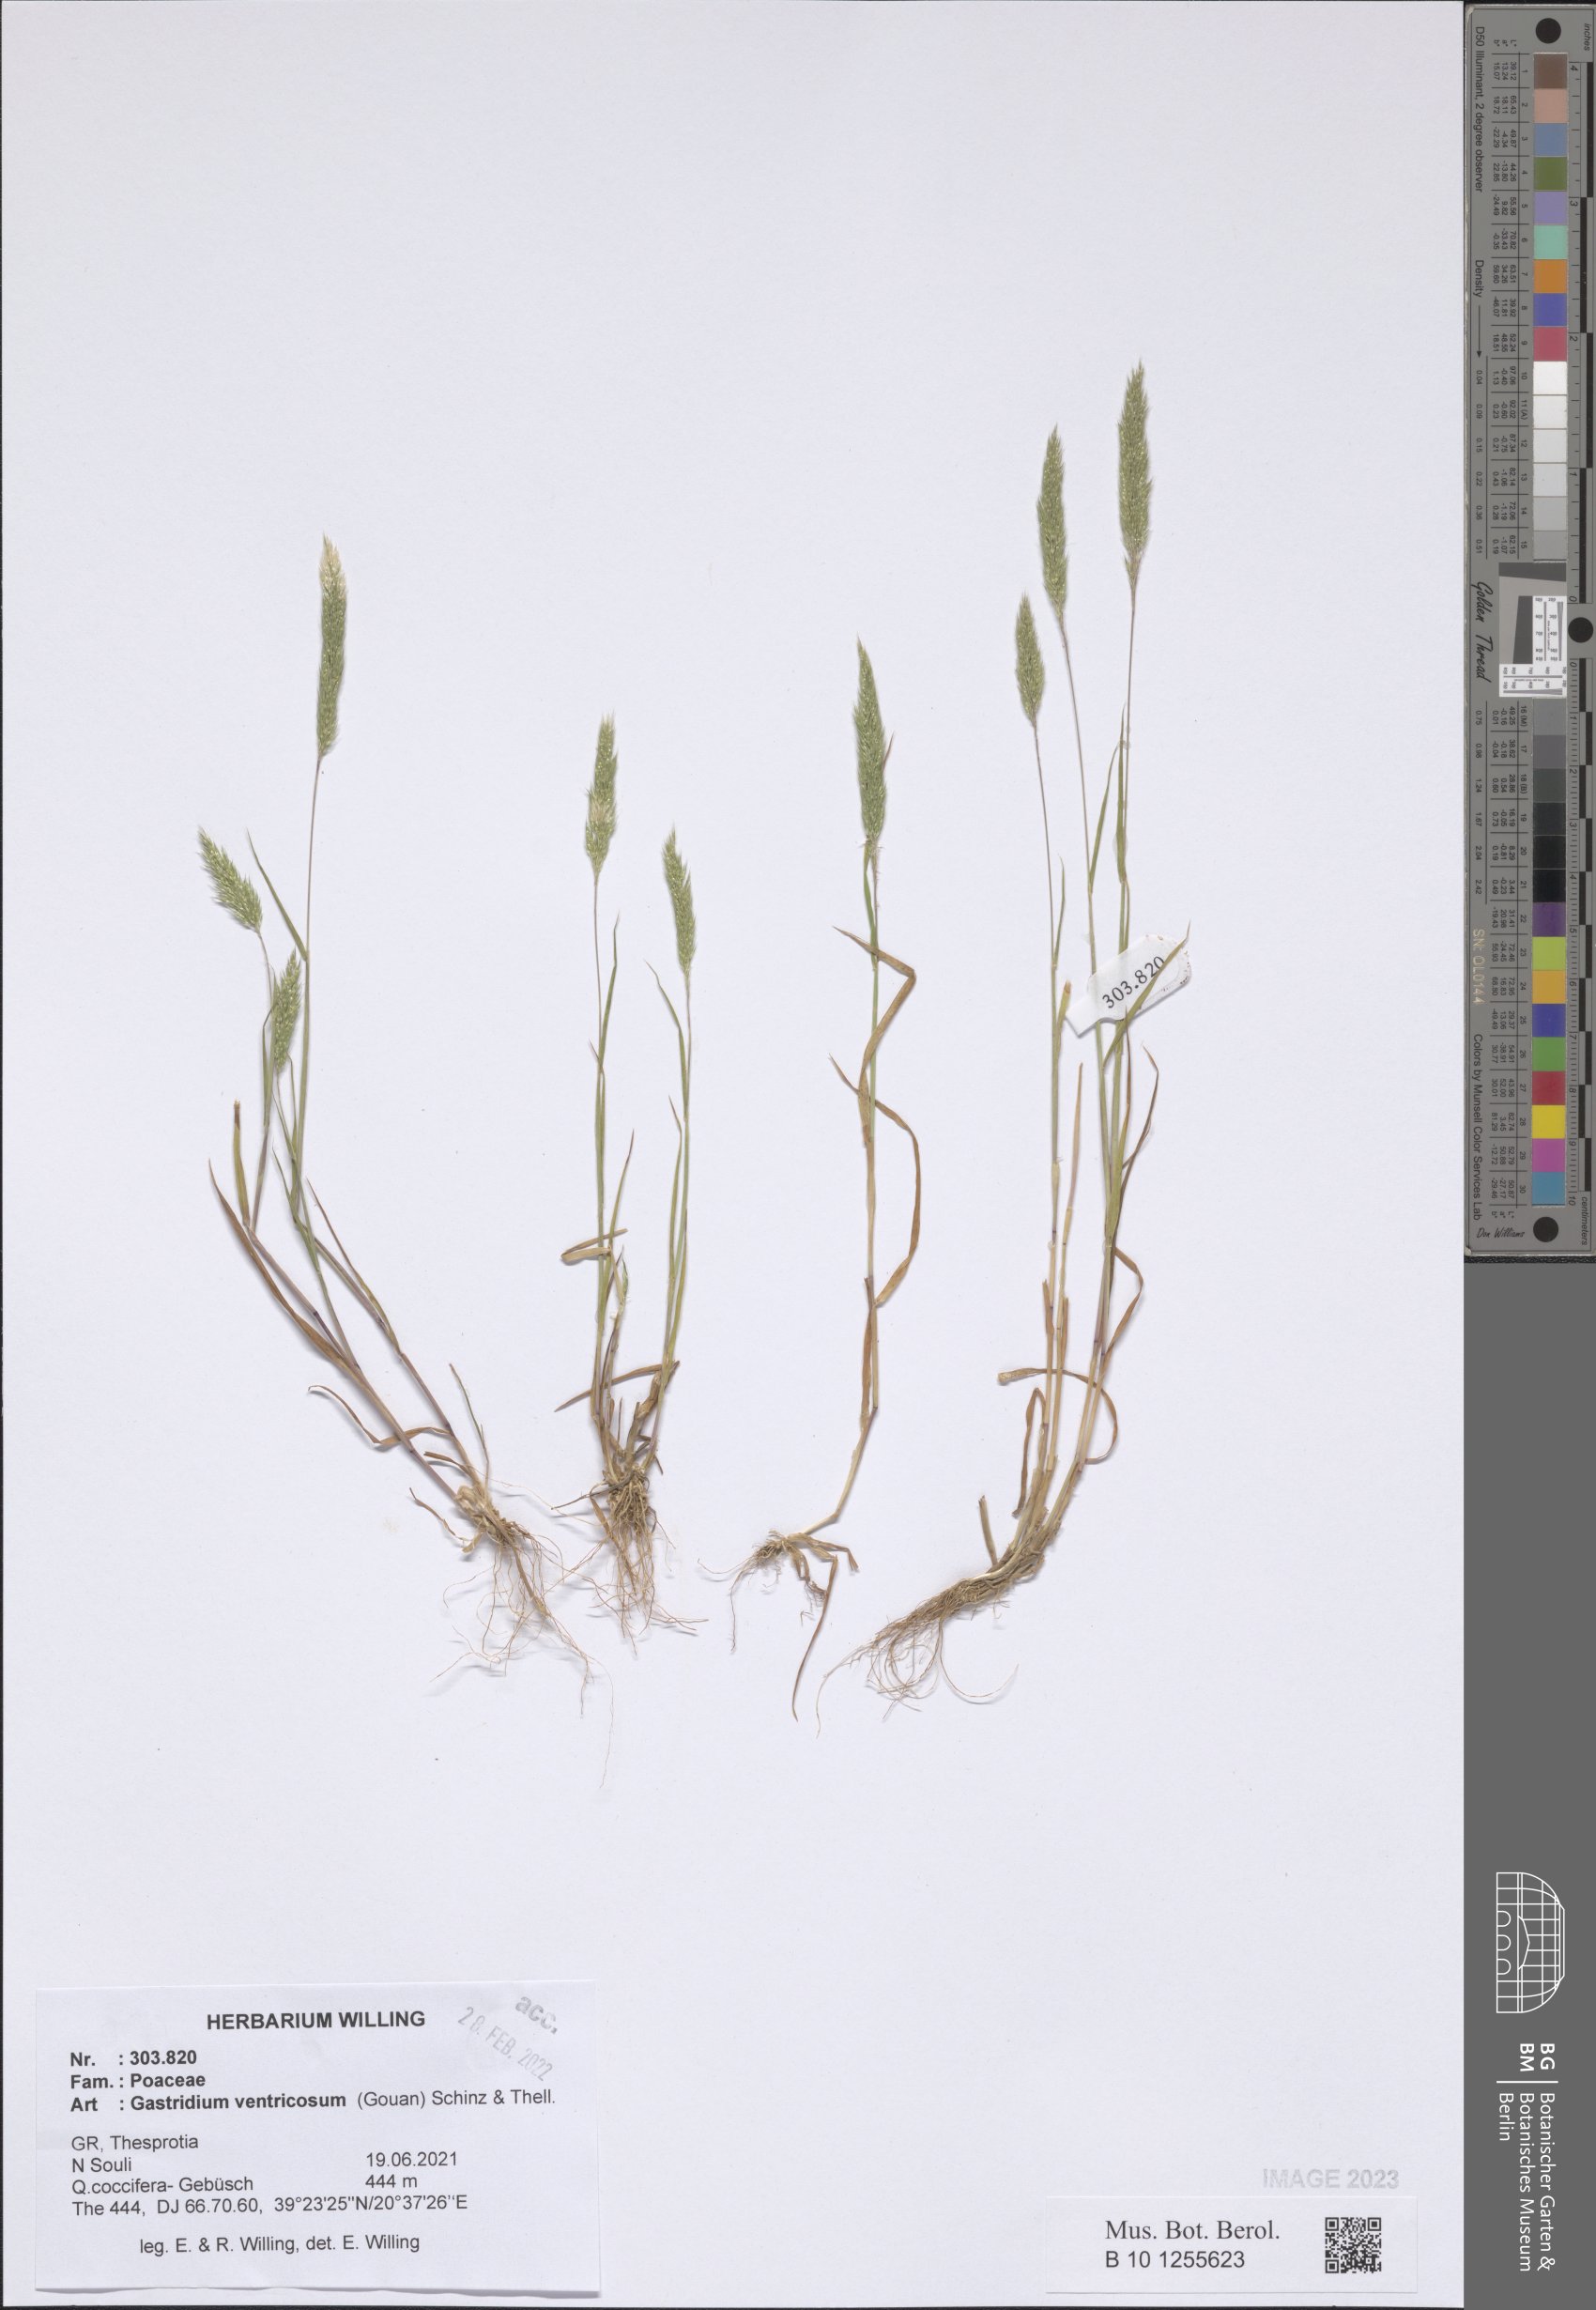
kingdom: Plantae
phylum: Tracheophyta
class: Liliopsida
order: Poales
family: Poaceae
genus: Gastridium
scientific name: Gastridium ventricosum
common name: Nit-grass
